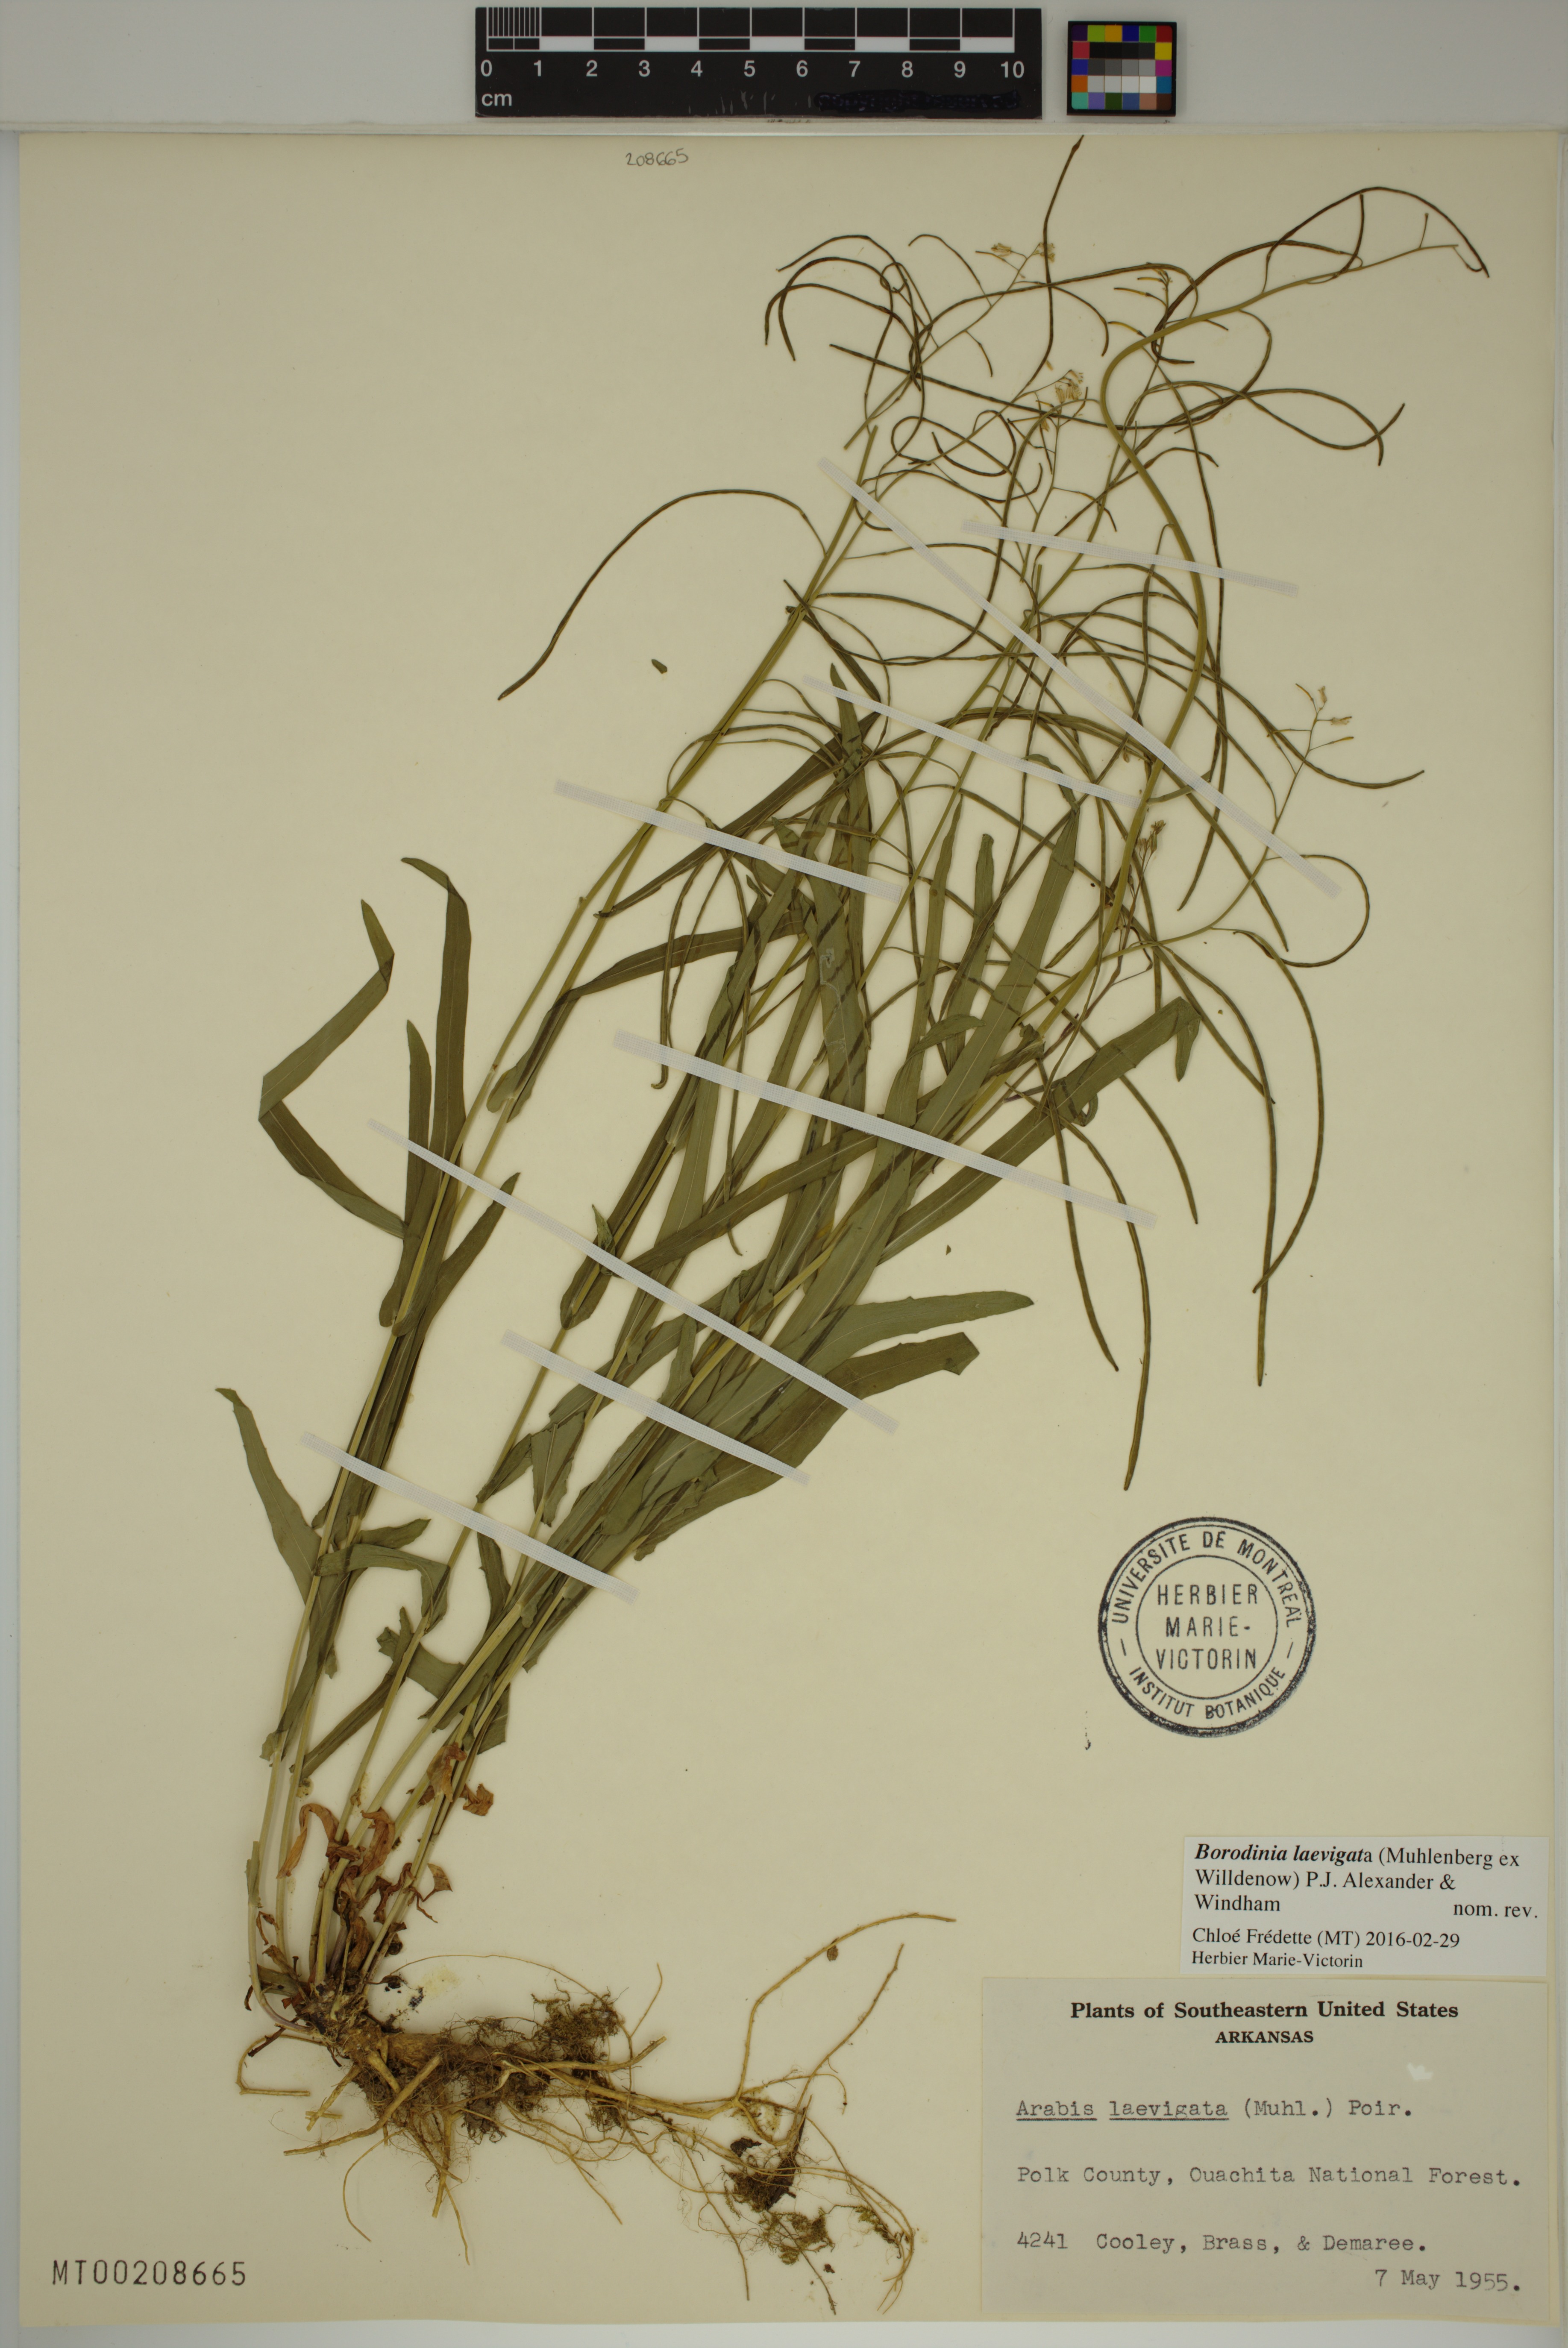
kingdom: Plantae
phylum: Tracheophyta
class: Magnoliopsida
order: Brassicales
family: Brassicaceae
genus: Borodinia
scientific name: Borodinia laevigata
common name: Smooth rockcress
